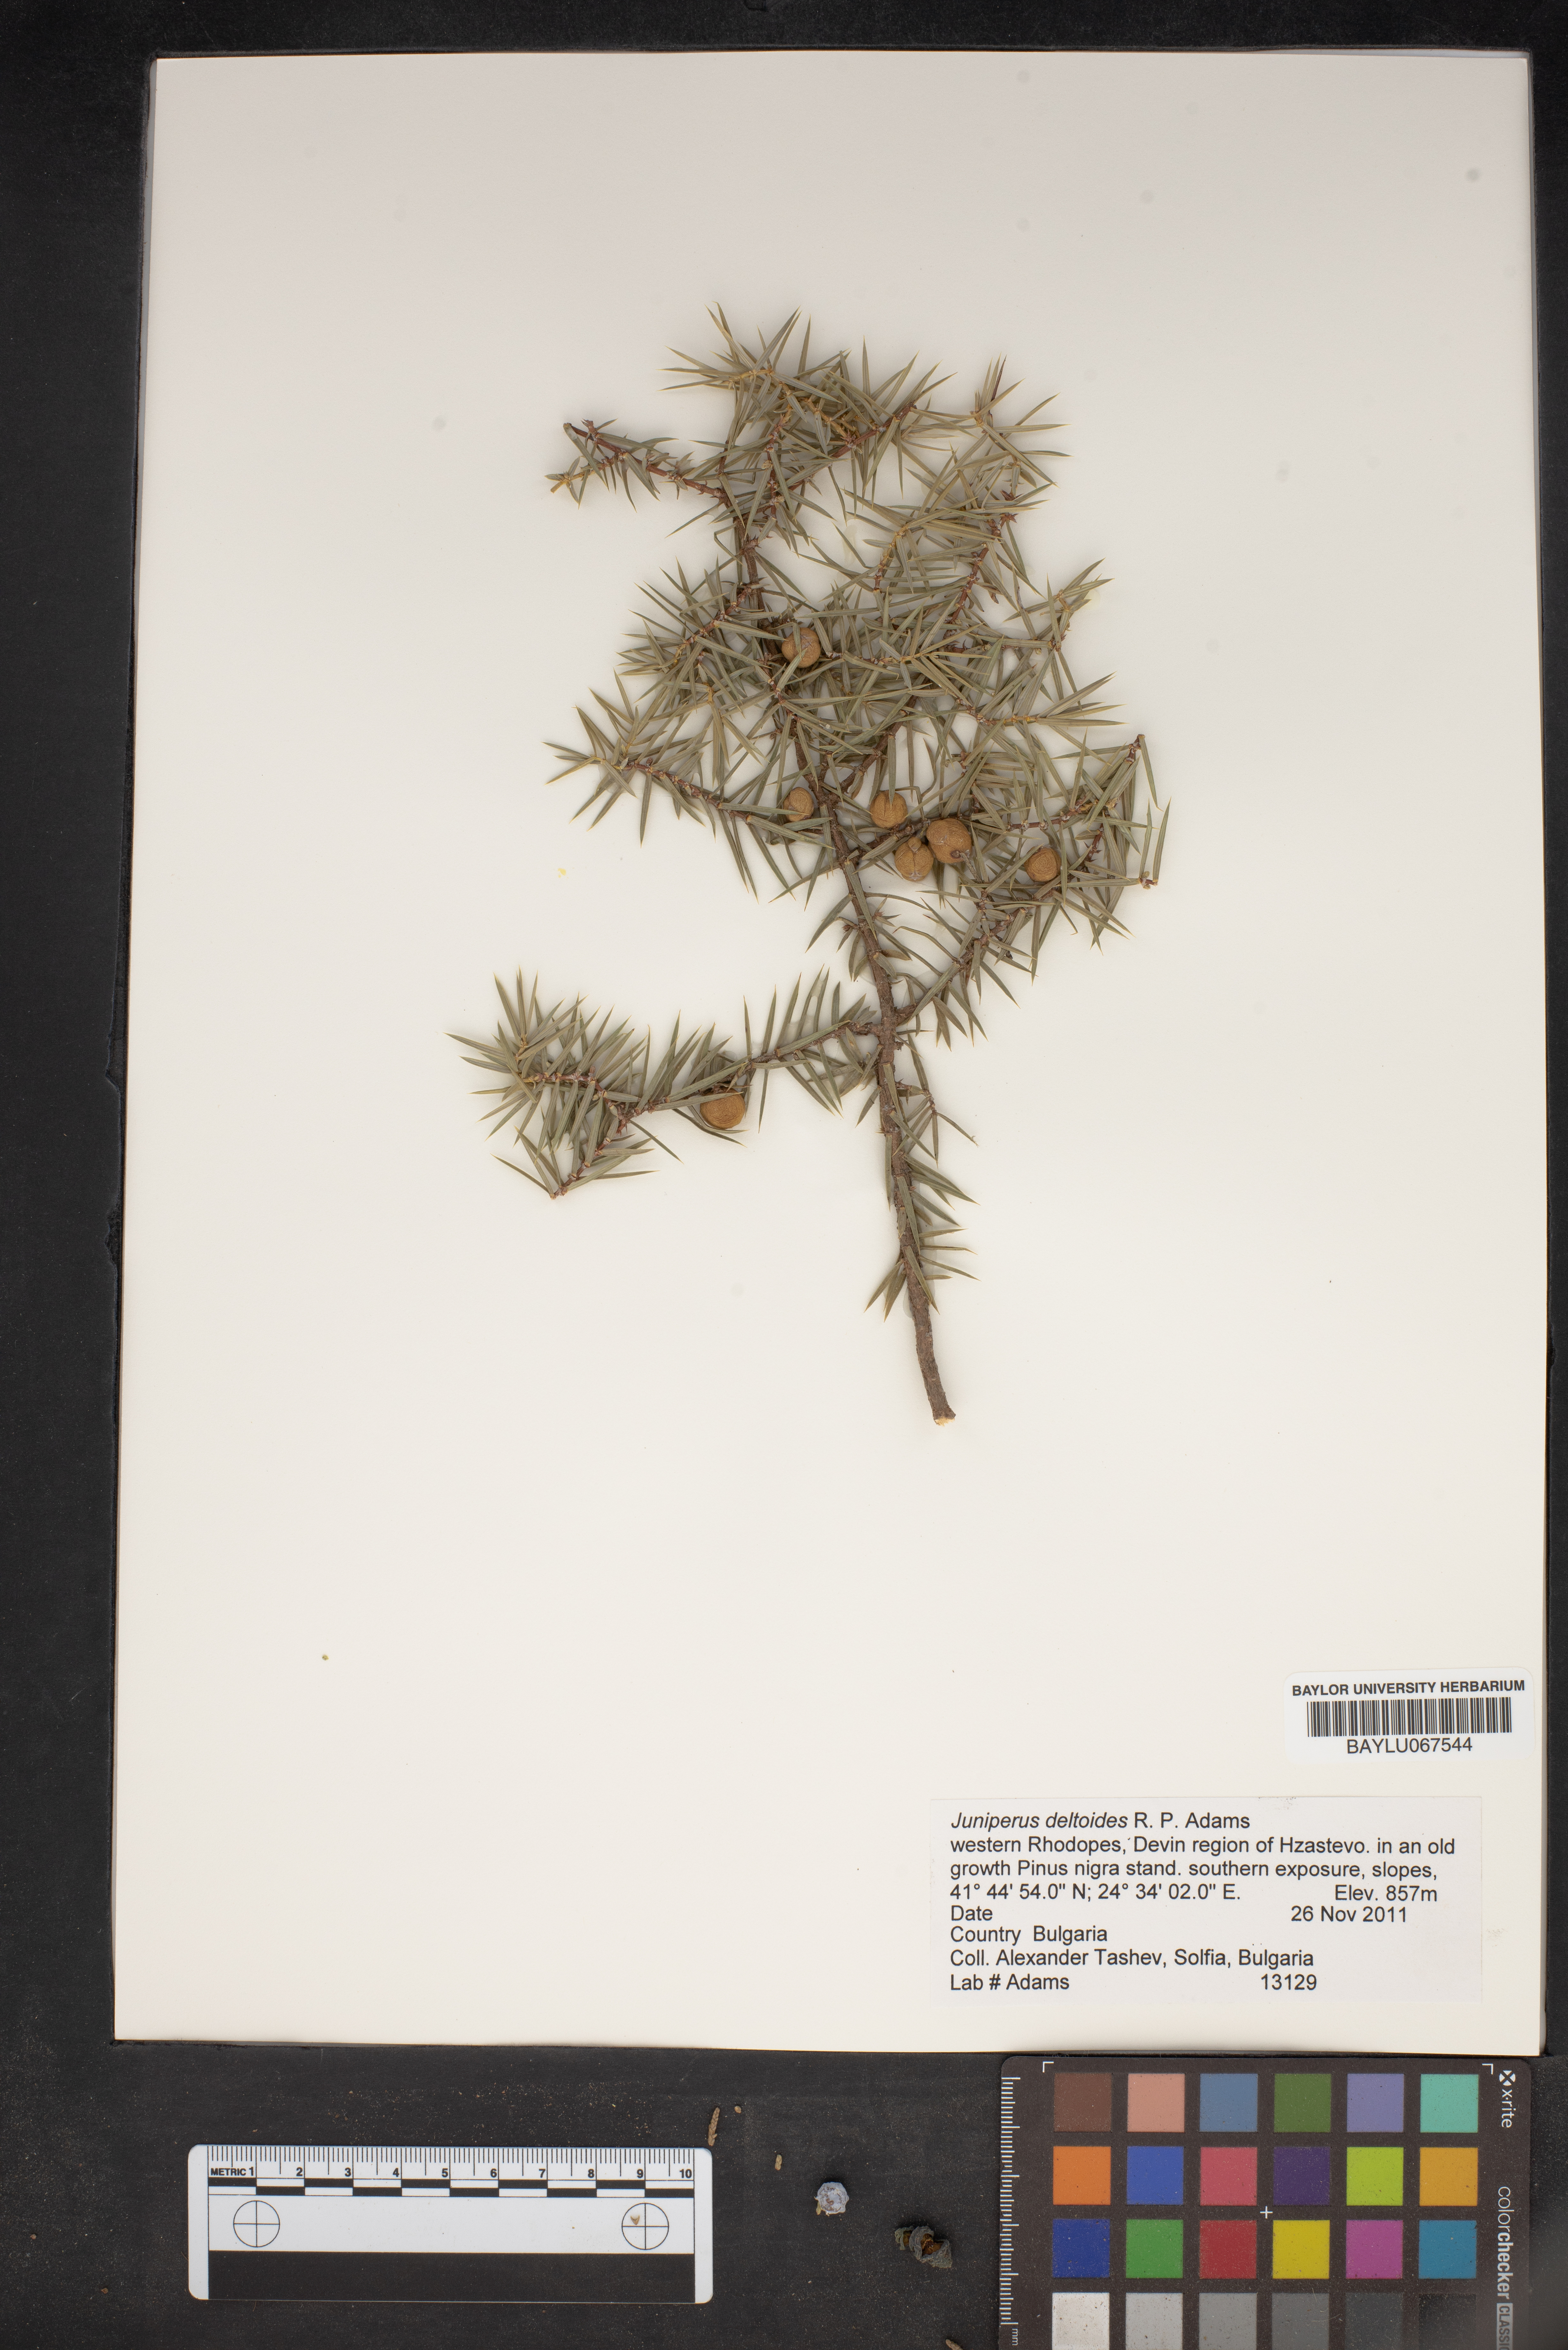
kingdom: Plantae
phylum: Tracheophyta
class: Pinopsida
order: Pinales
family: Cupressaceae
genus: Juniperus
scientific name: Juniperus oxycedrus
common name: Prickly juniper
